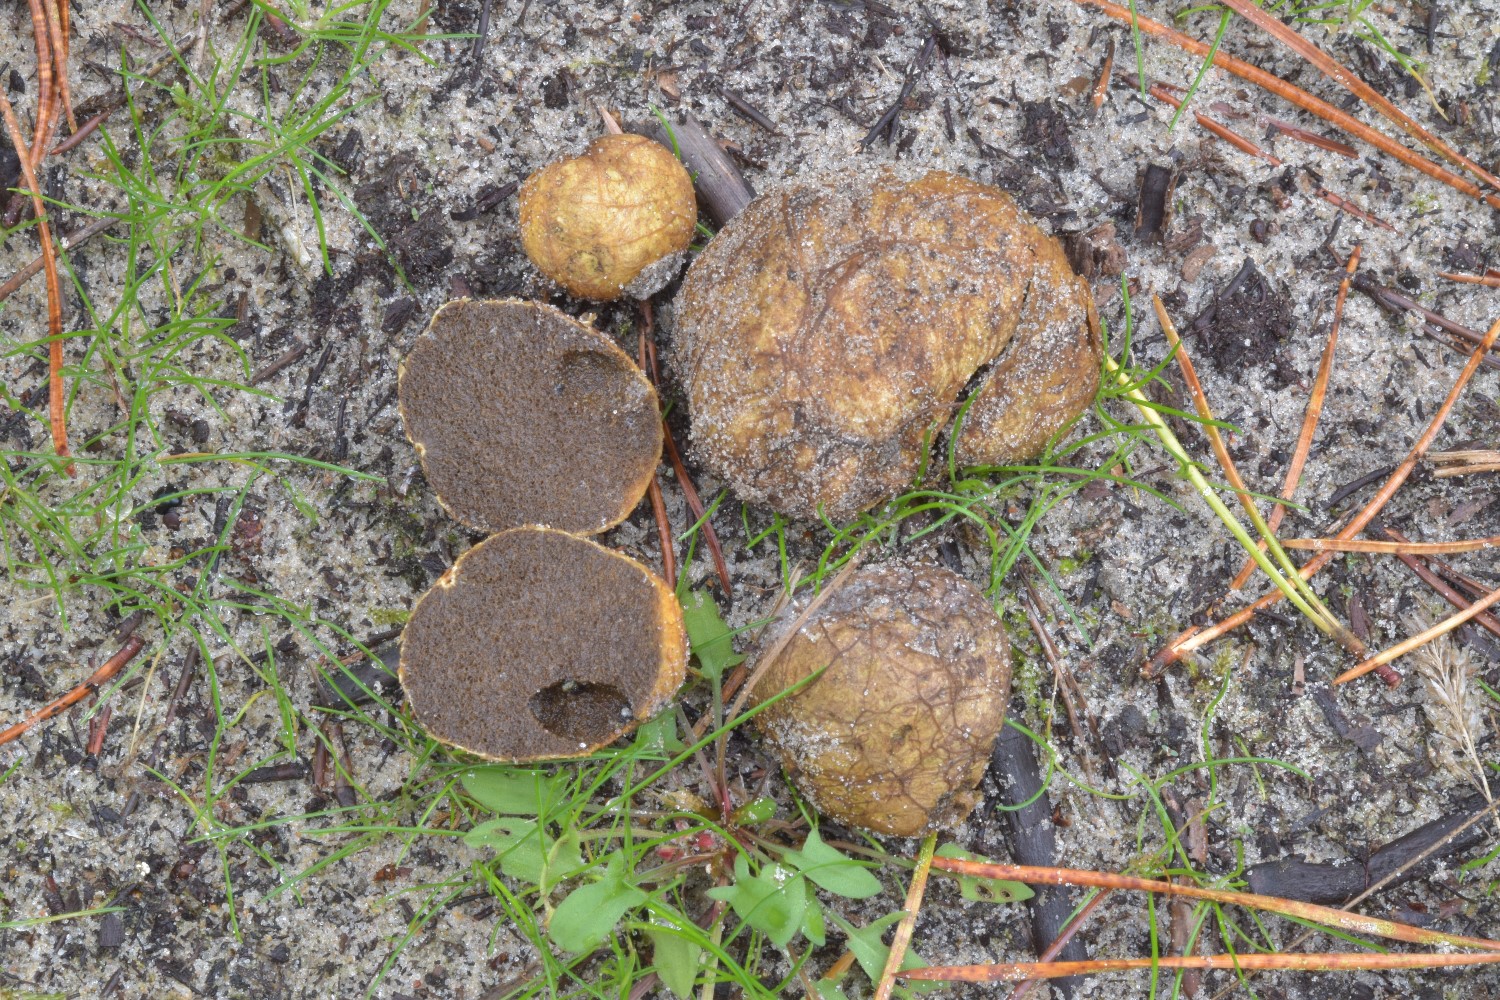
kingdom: Fungi
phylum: Basidiomycota
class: Agaricomycetes
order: Boletales
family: Rhizopogonaceae
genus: Rhizopogon
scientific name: Rhizopogon obtextus
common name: gul skægtrøffel
